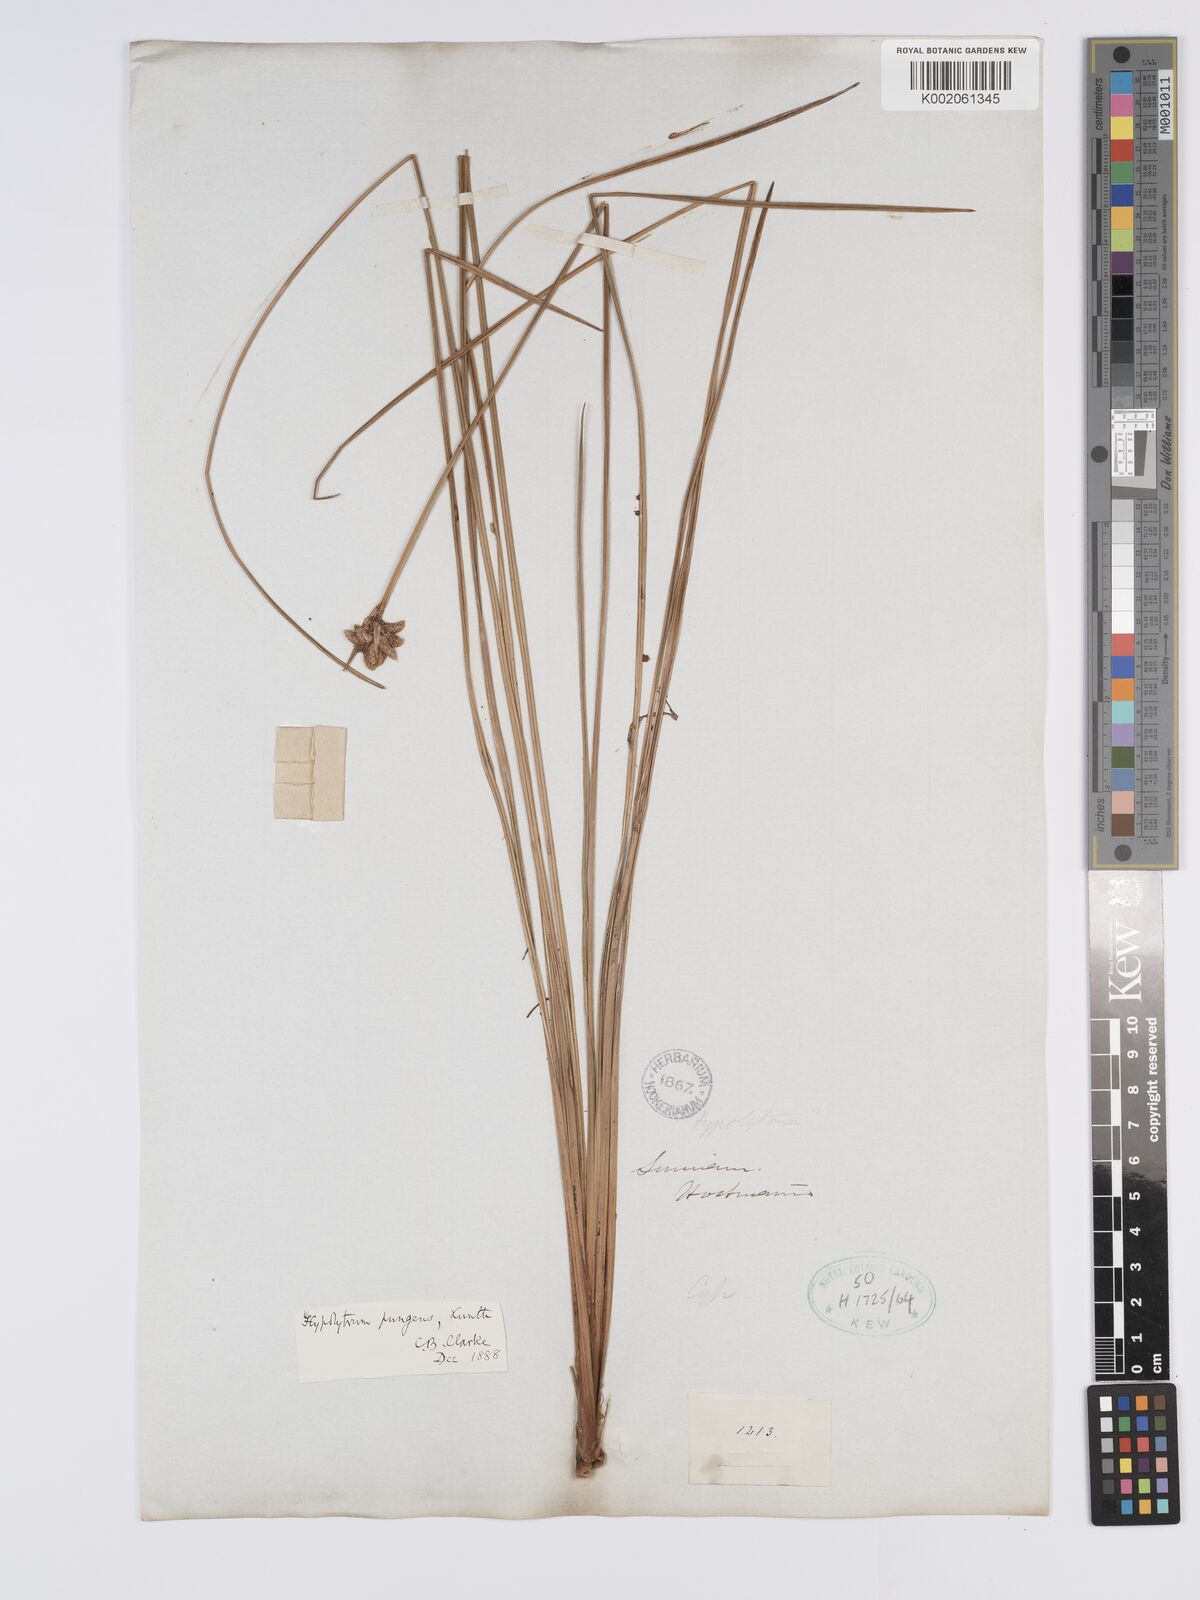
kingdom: Plantae
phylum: Tracheophyta
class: Liliopsida
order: Poales
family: Cyperaceae
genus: Hypolytrum
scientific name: Hypolytrum pulchrum
